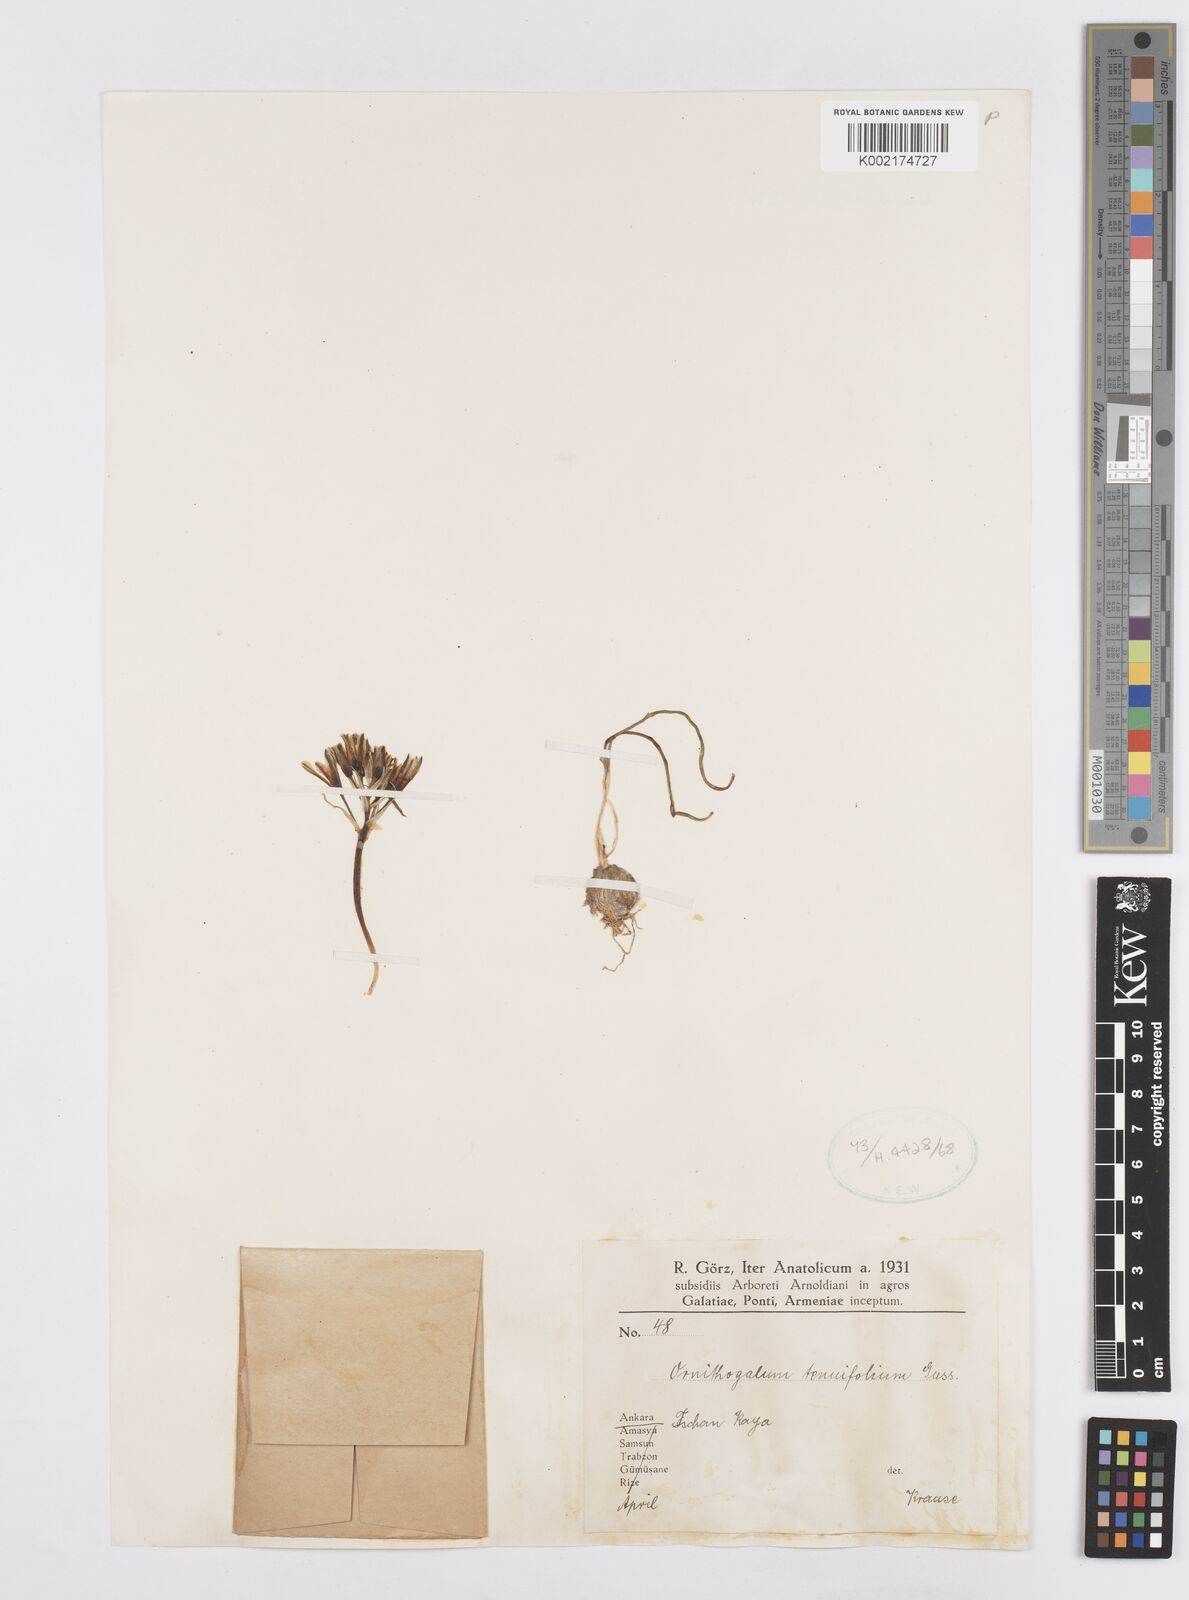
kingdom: Plantae
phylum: Tracheophyta
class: Liliopsida
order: Asparagales
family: Asparagaceae
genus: Ornithogalum
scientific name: Ornithogalum
